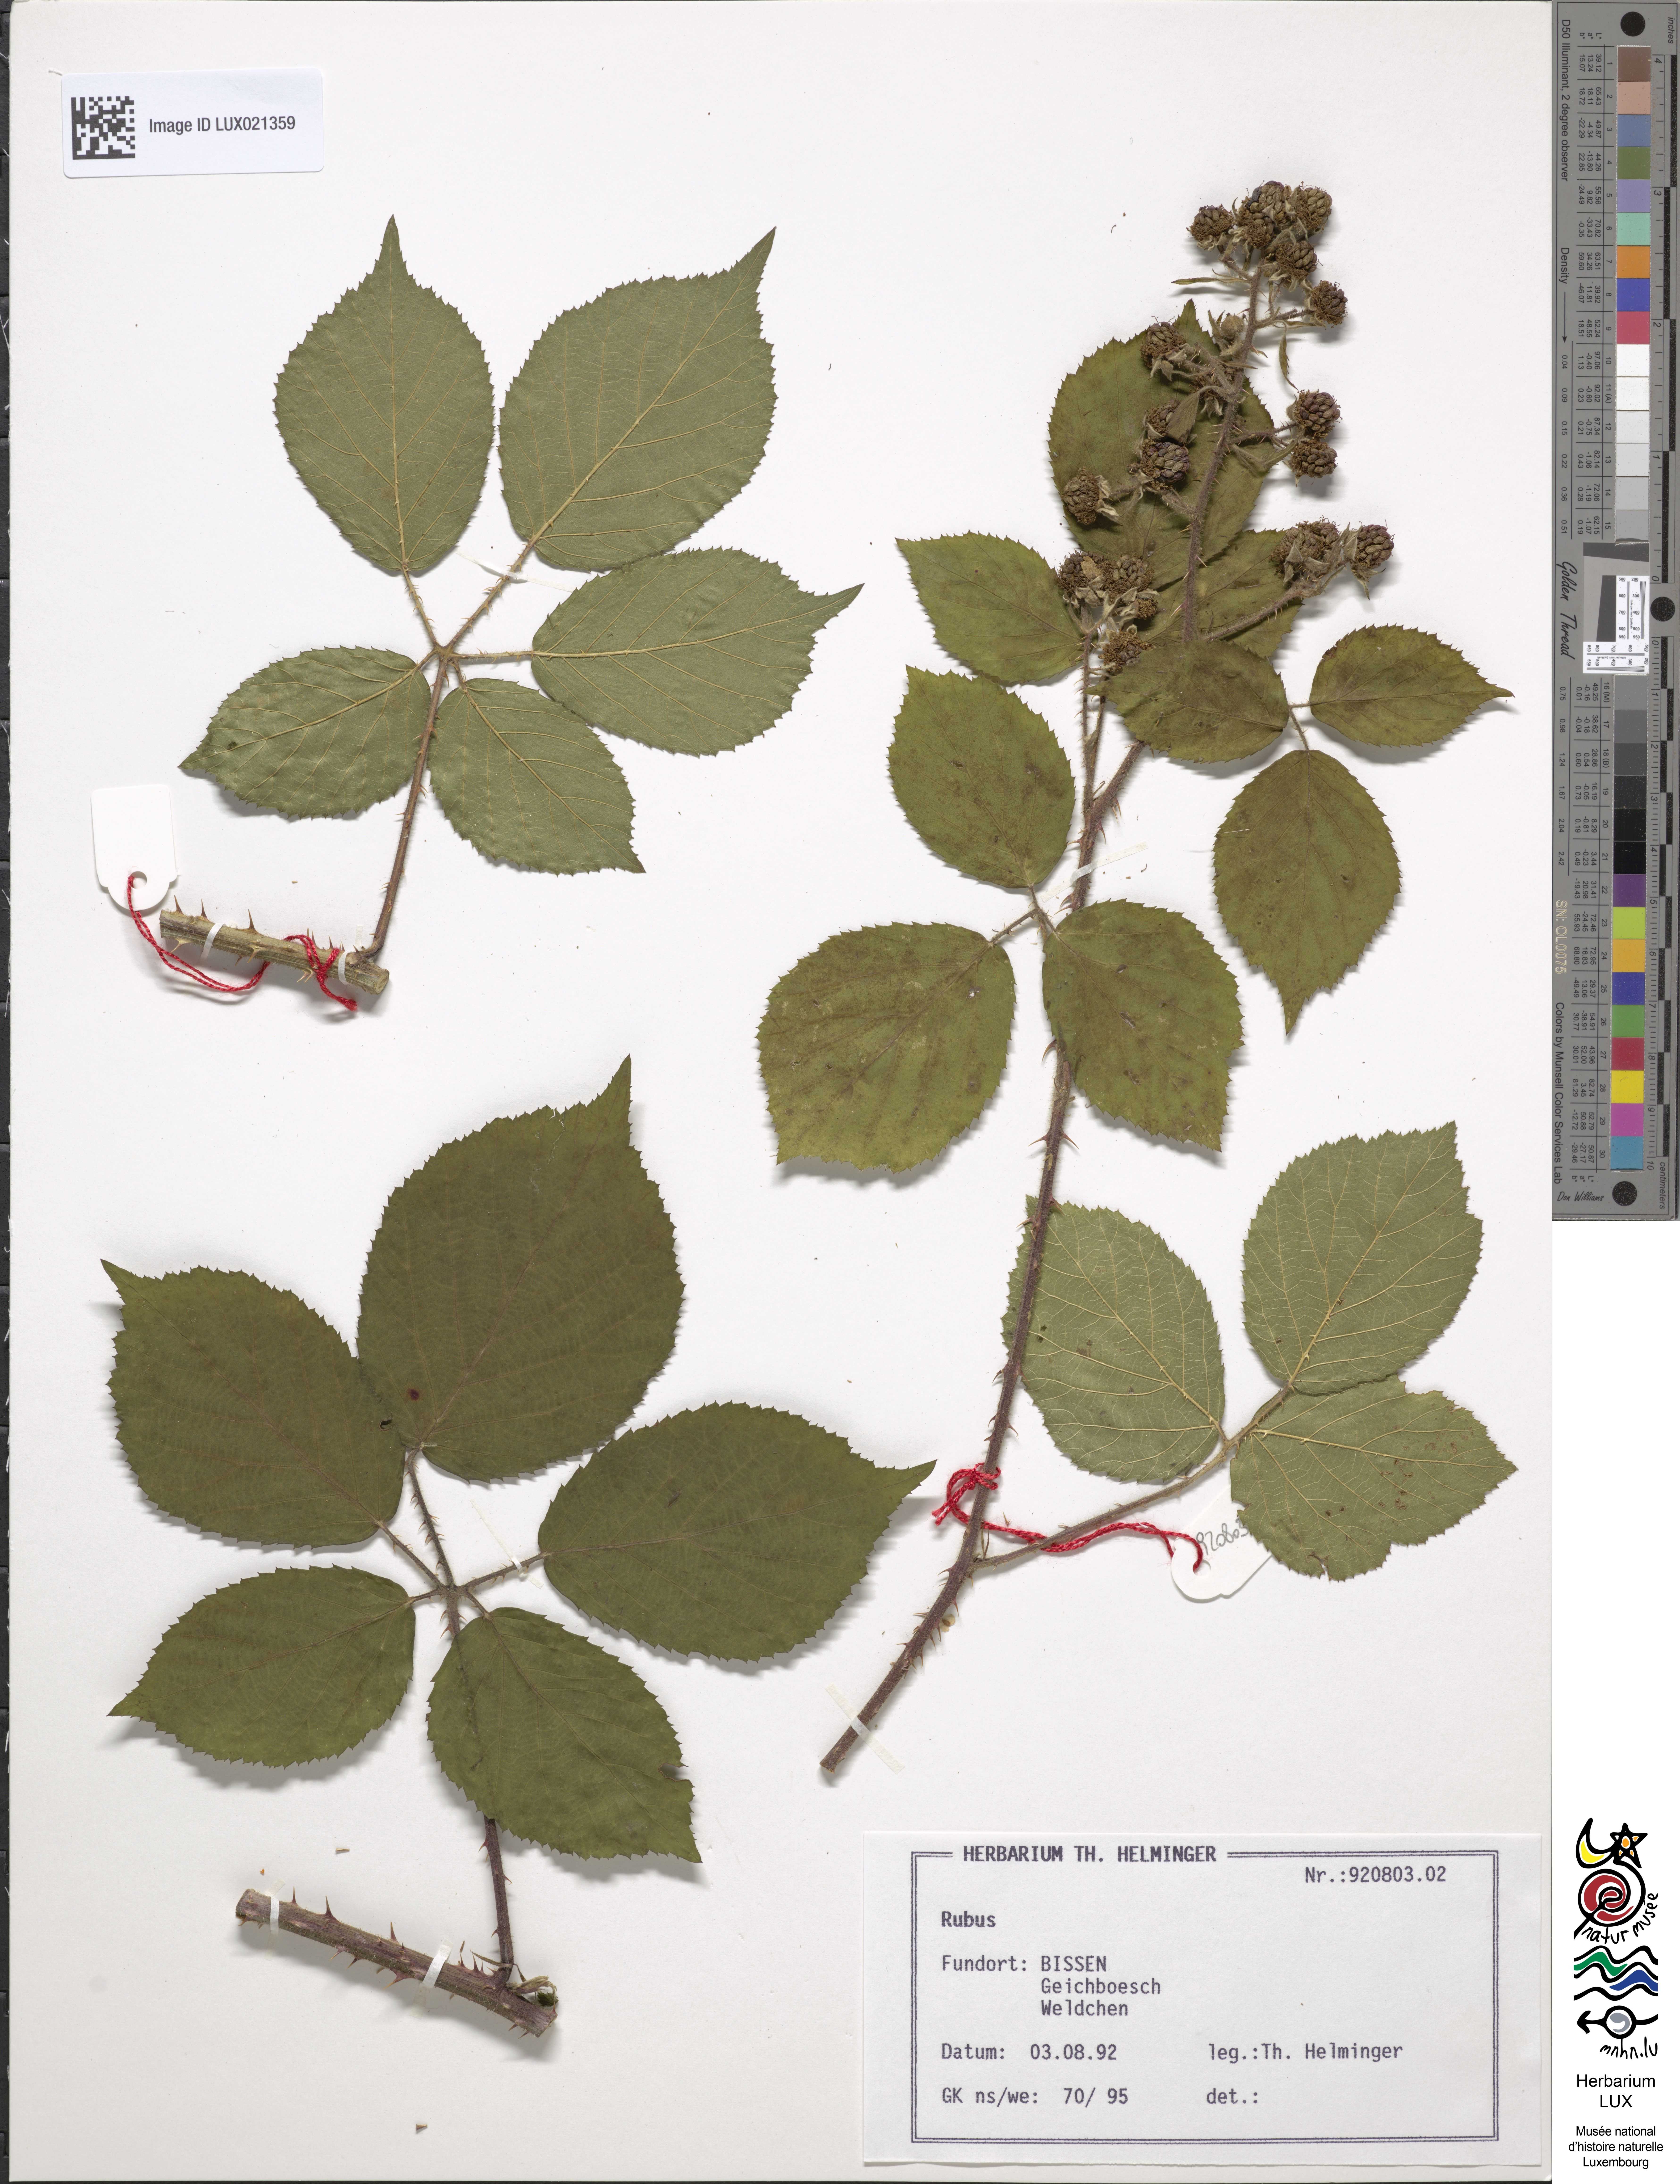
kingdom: Plantae
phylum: Tracheophyta
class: Magnoliopsida
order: Rosales
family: Rosaceae
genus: Rubus
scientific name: Rubus
